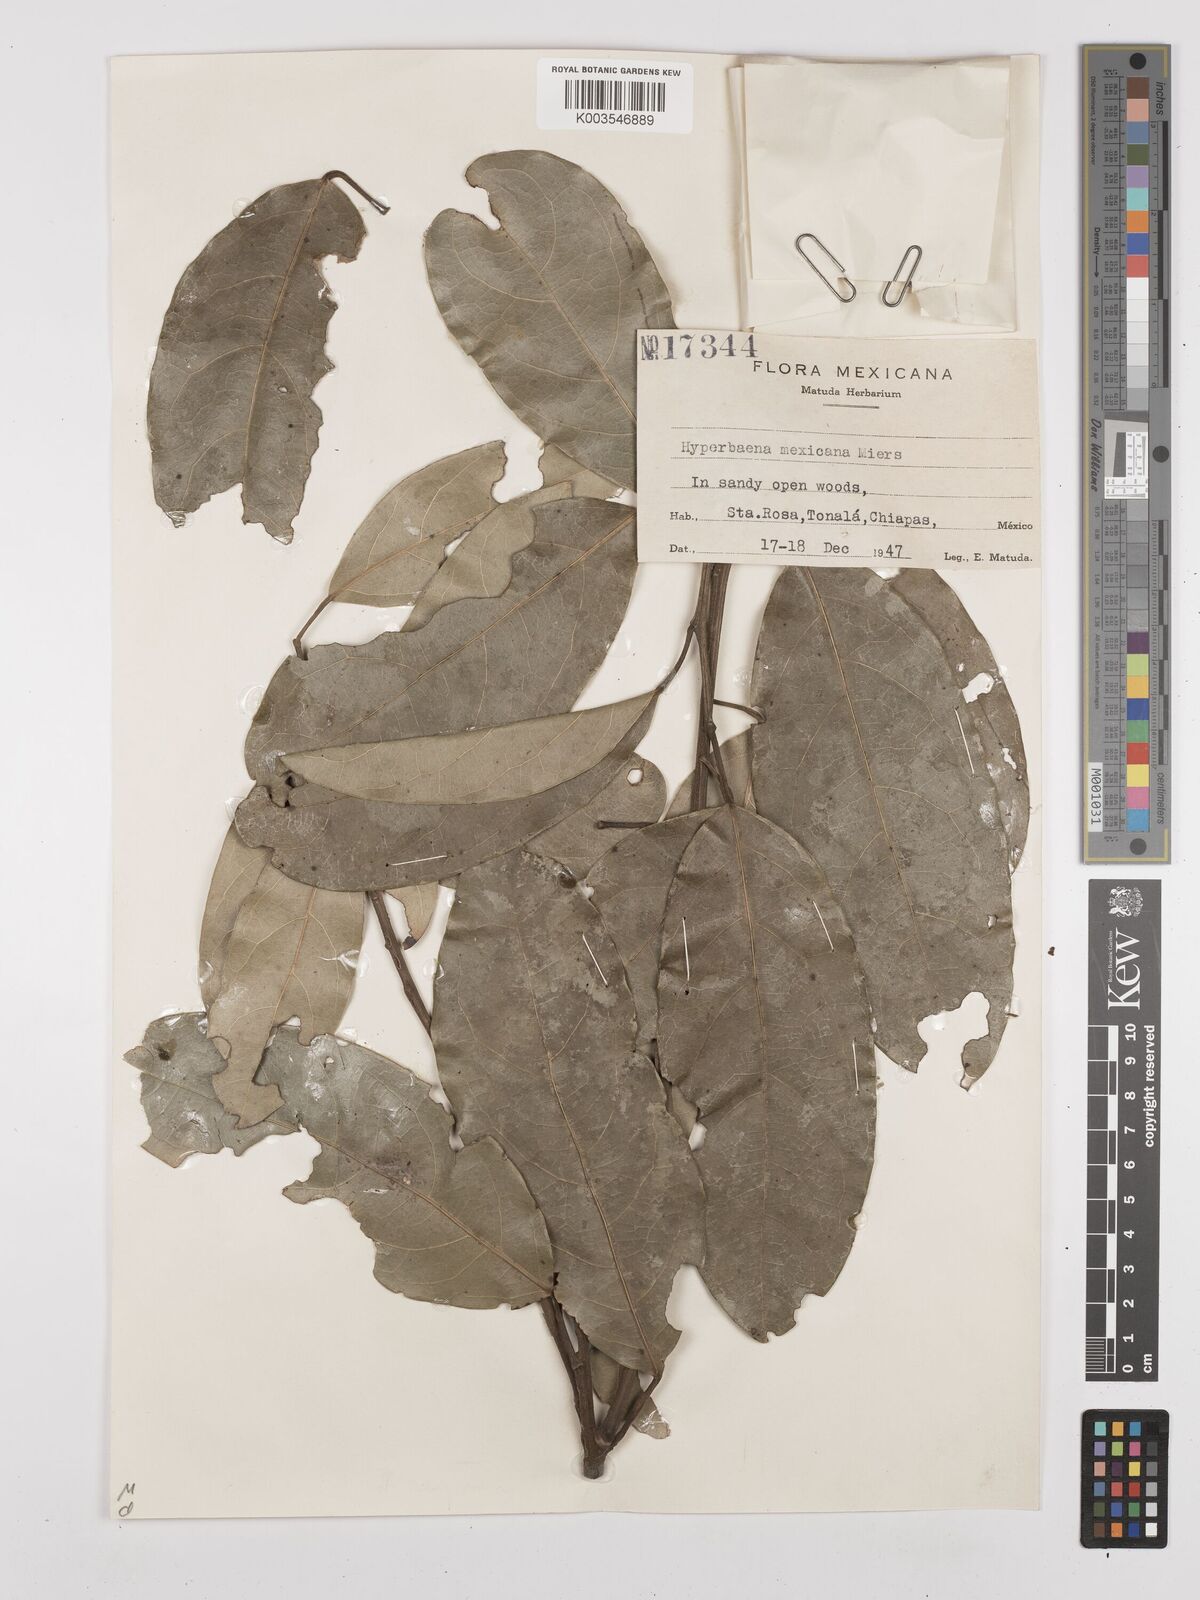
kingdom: Plantae
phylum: Tracheophyta
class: Magnoliopsida
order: Ranunculales
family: Menispermaceae
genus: Hyperbaena
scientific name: Hyperbaena mexicana
